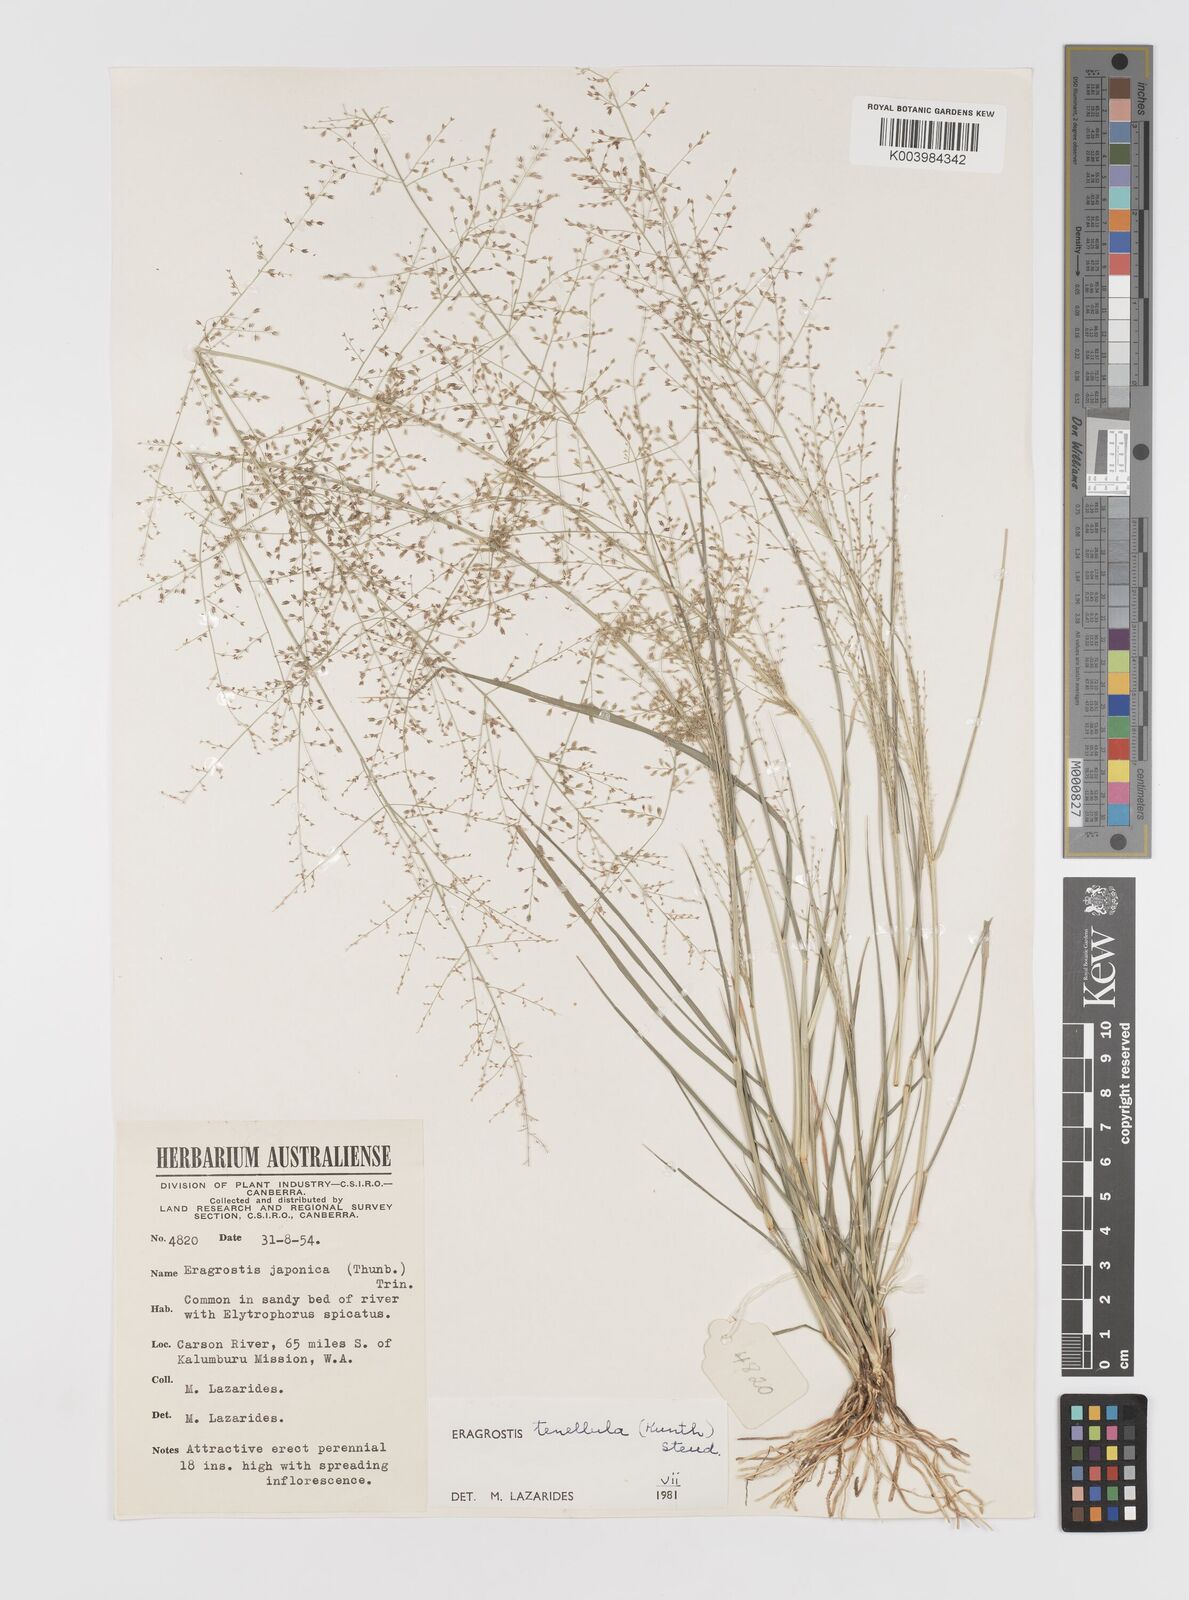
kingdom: Plantae
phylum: Tracheophyta
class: Liliopsida
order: Poales
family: Poaceae
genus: Eragrostis
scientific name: Eragrostis tenellula
